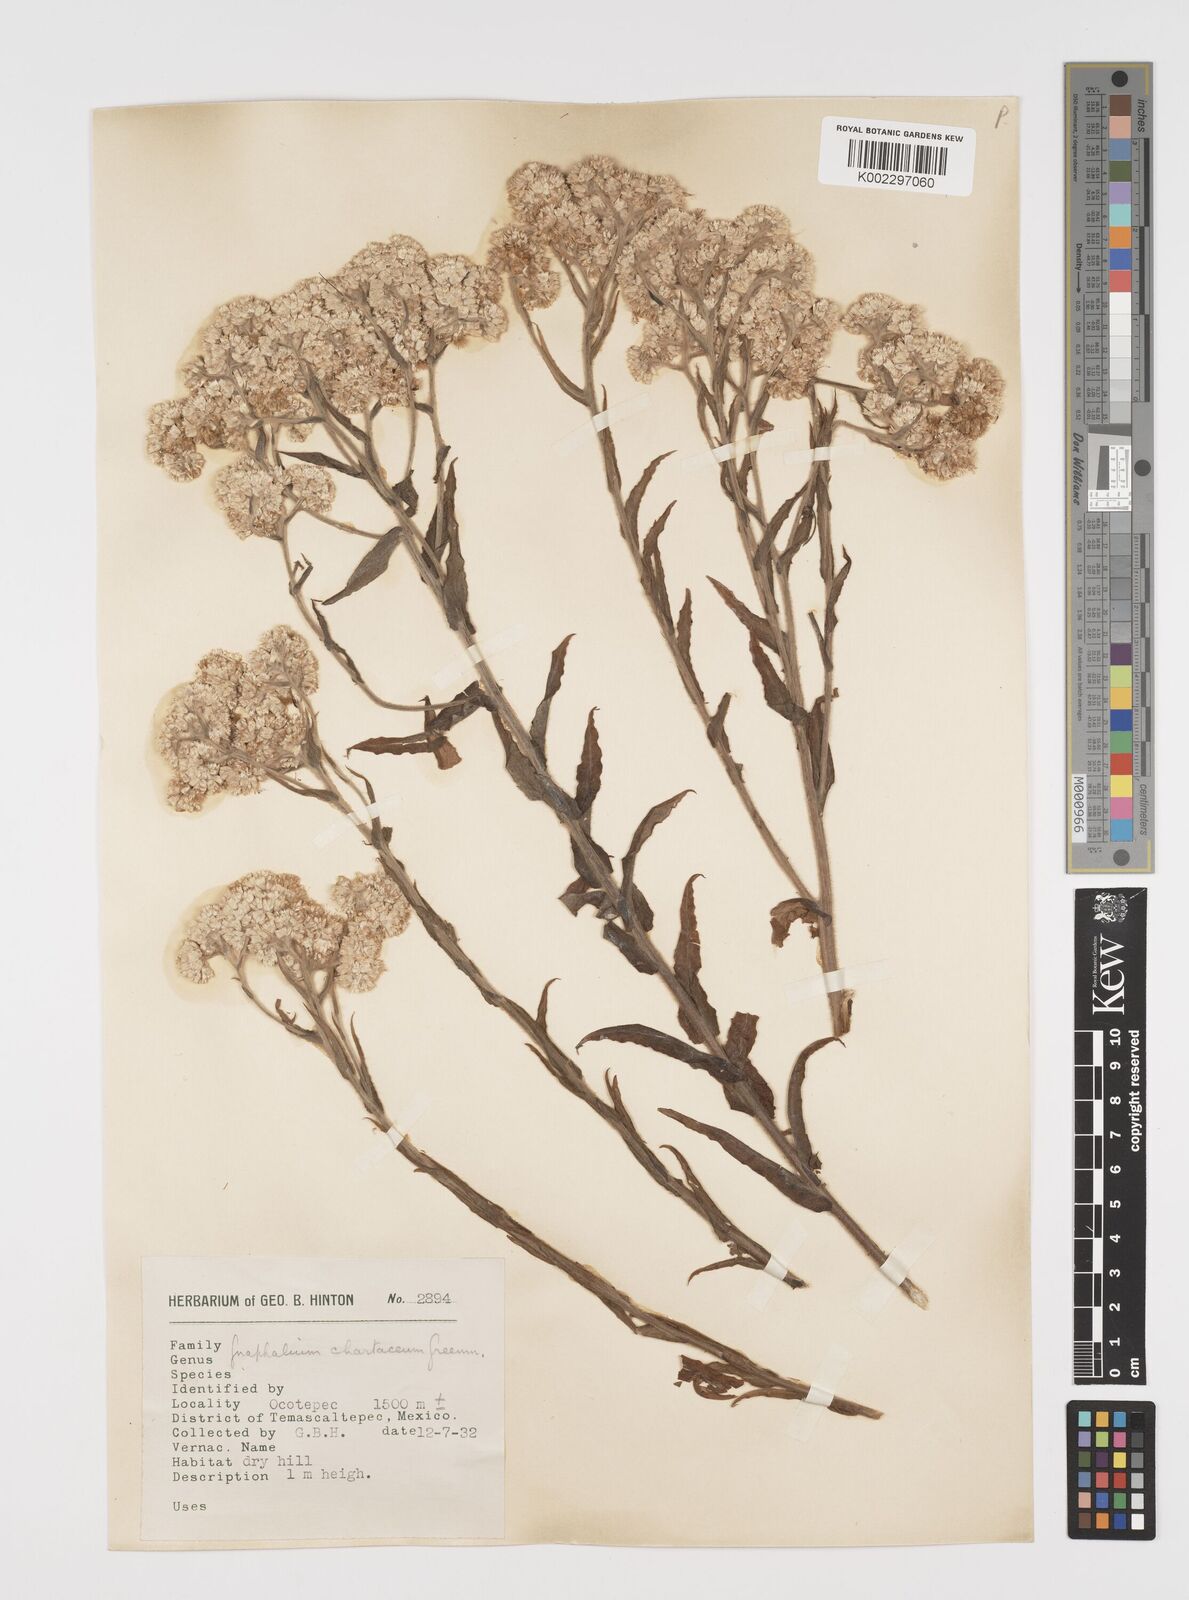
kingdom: Plantae
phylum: Tracheophyta
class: Magnoliopsida
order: Asterales
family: Asteraceae
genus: Pseudognaphalium
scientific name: Pseudognaphalium chartaceum
